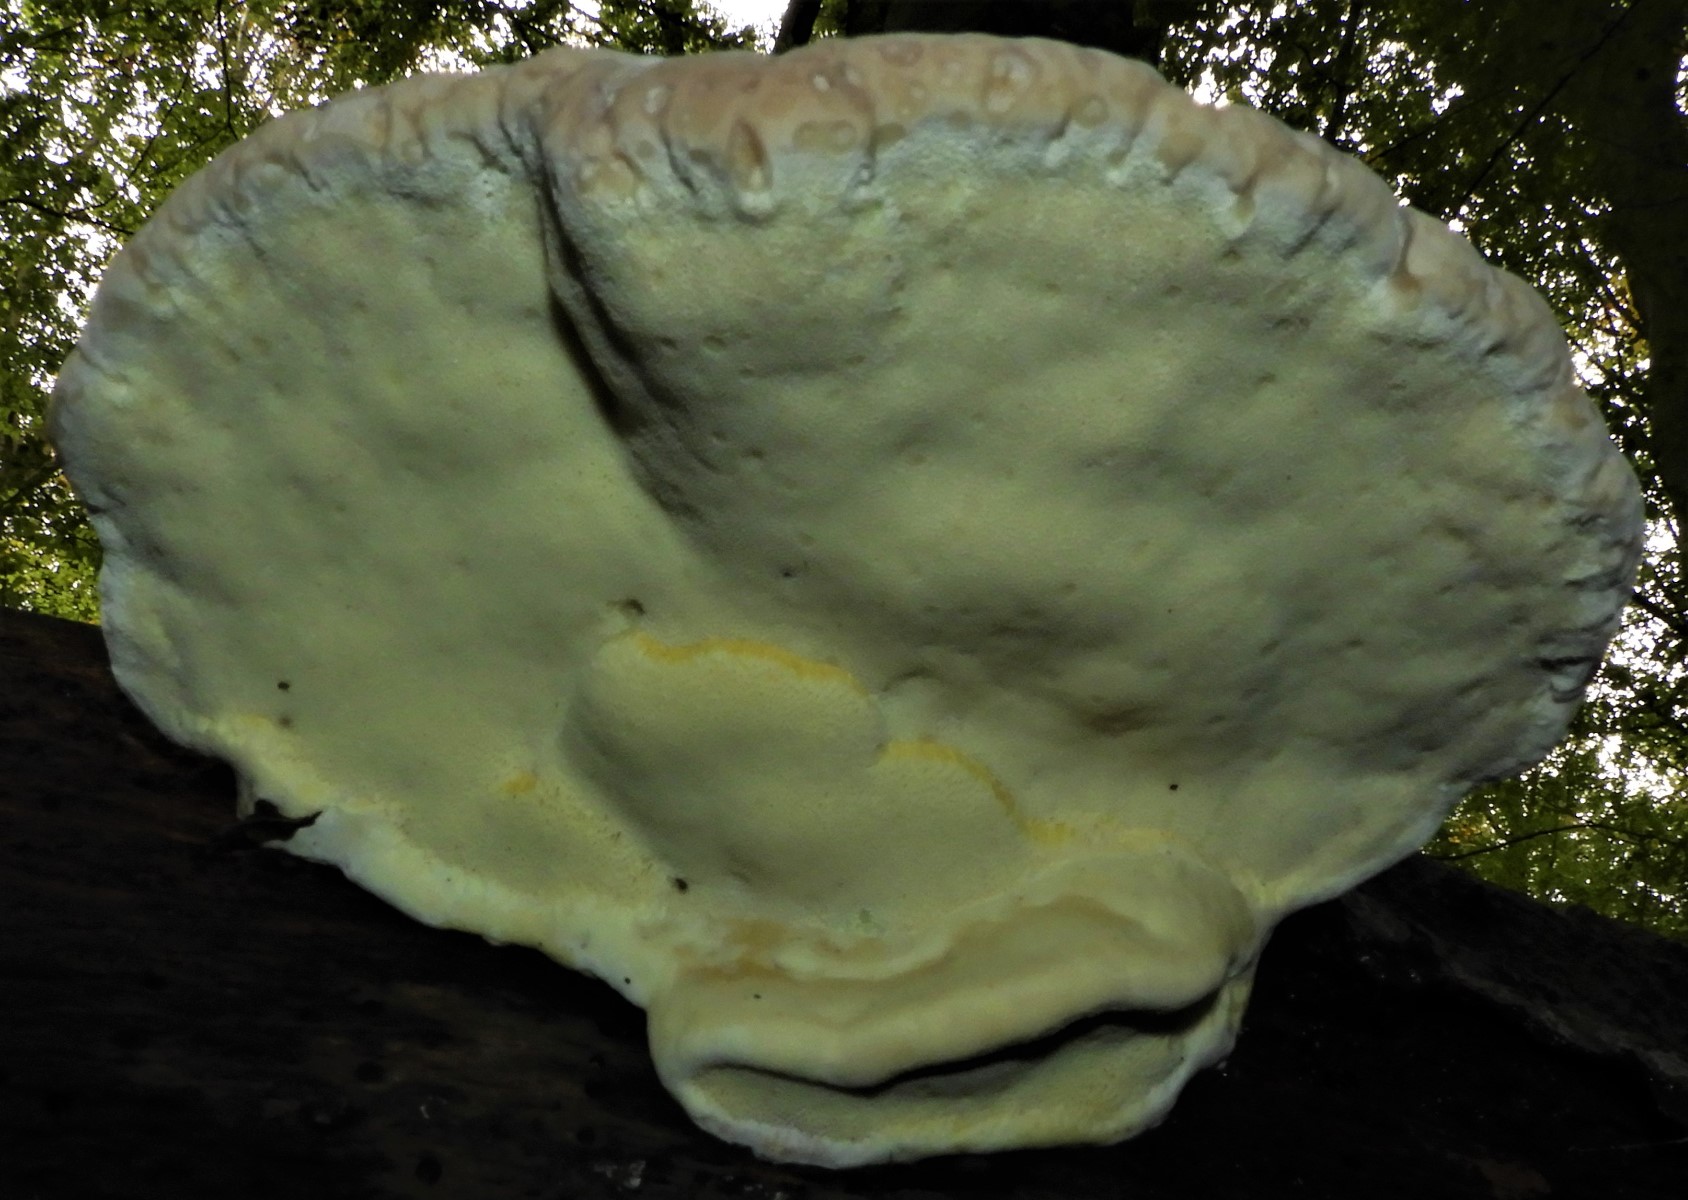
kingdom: Fungi
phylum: Basidiomycota
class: Agaricomycetes
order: Polyporales
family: Fomitopsidaceae
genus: Fomitopsis
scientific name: Fomitopsis pinicola
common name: randbæltet hovporesvamp
